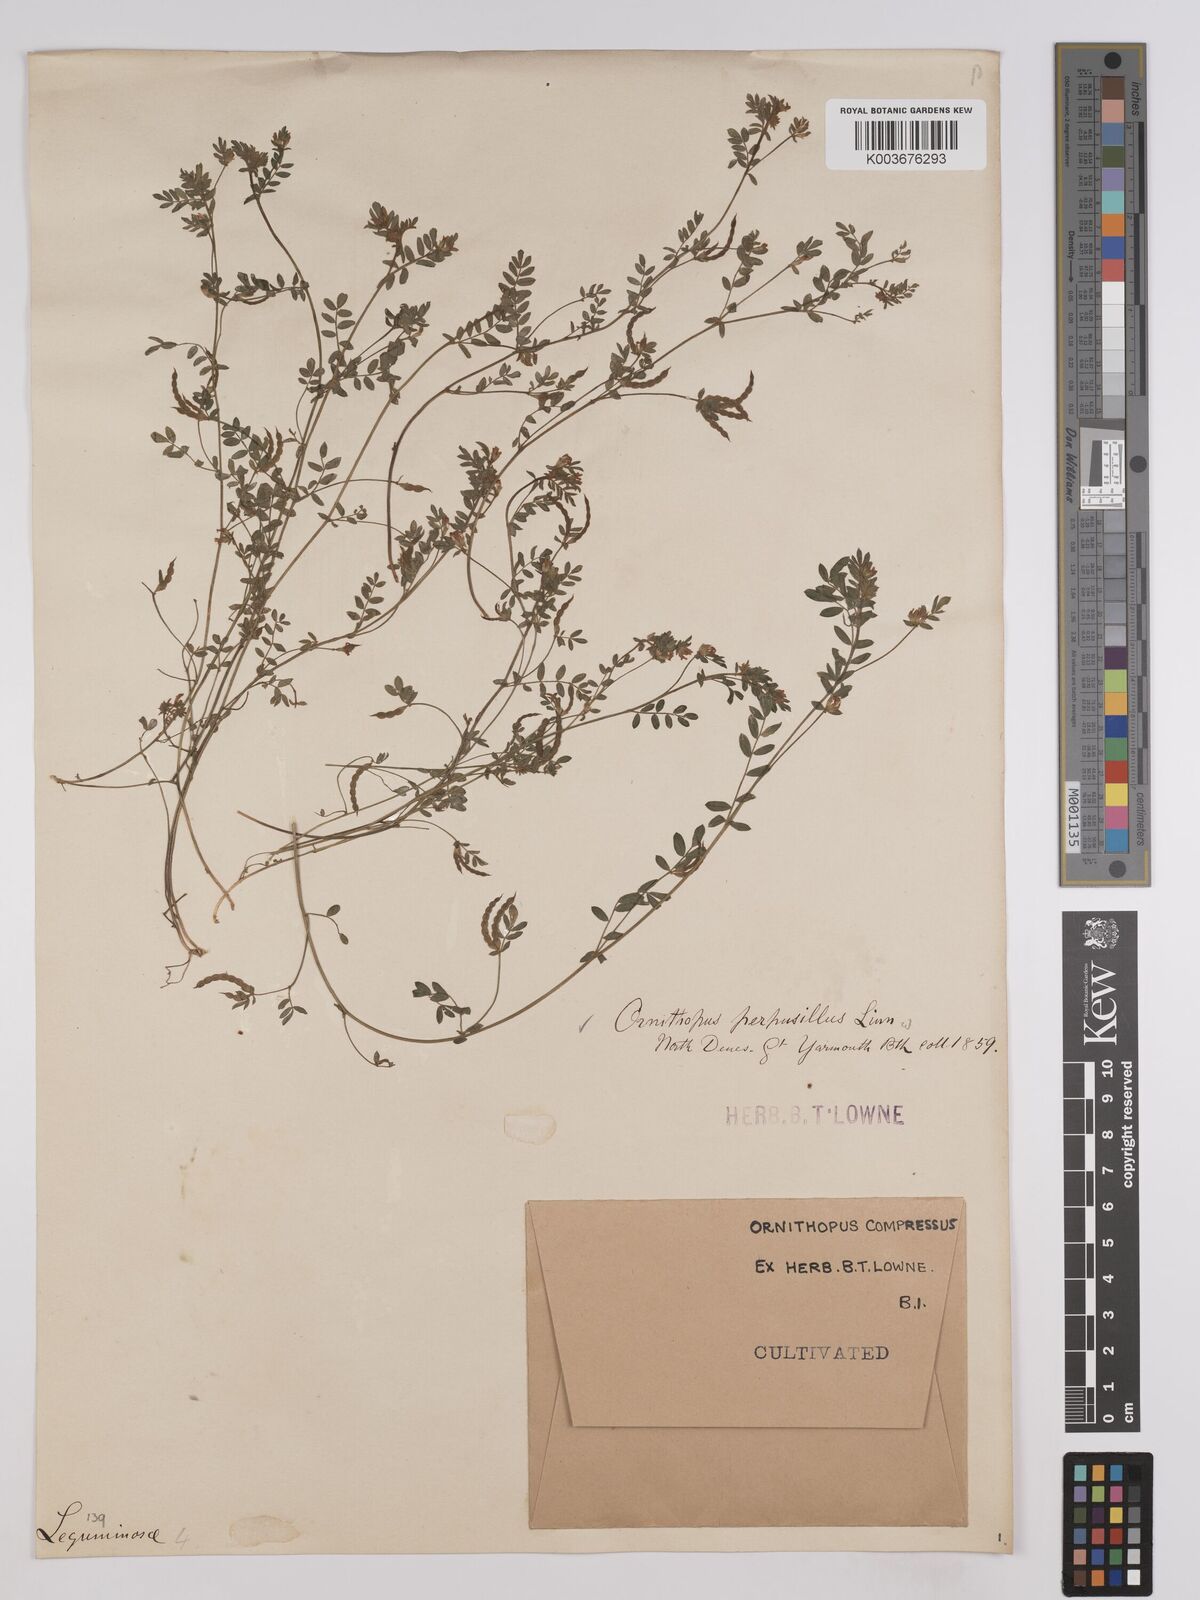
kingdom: Plantae
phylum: Tracheophyta
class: Magnoliopsida
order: Fabales
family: Fabaceae
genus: Ornithopus
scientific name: Ornithopus compressus
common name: Yellow serradella
